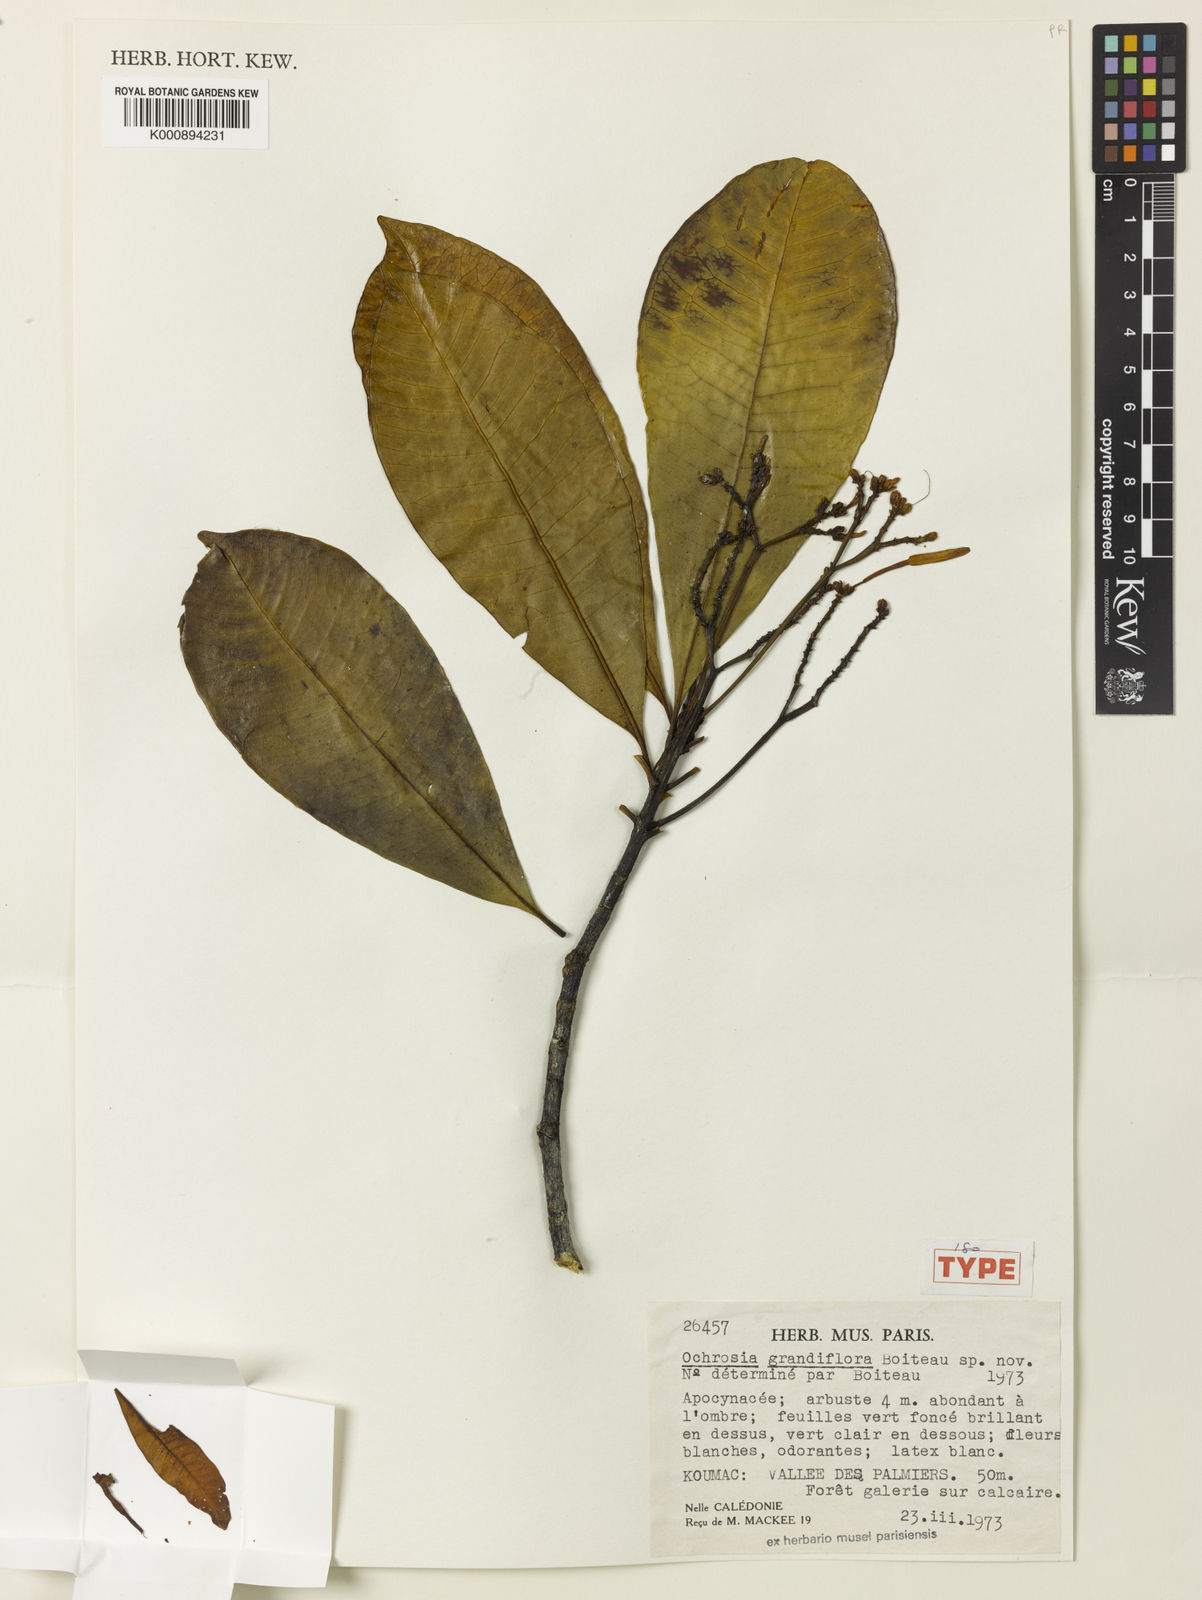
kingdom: Plantae
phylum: Tracheophyta
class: Magnoliopsida
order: Gentianales
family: Apocynaceae
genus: Ochrosia
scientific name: Ochrosia grandiflora
